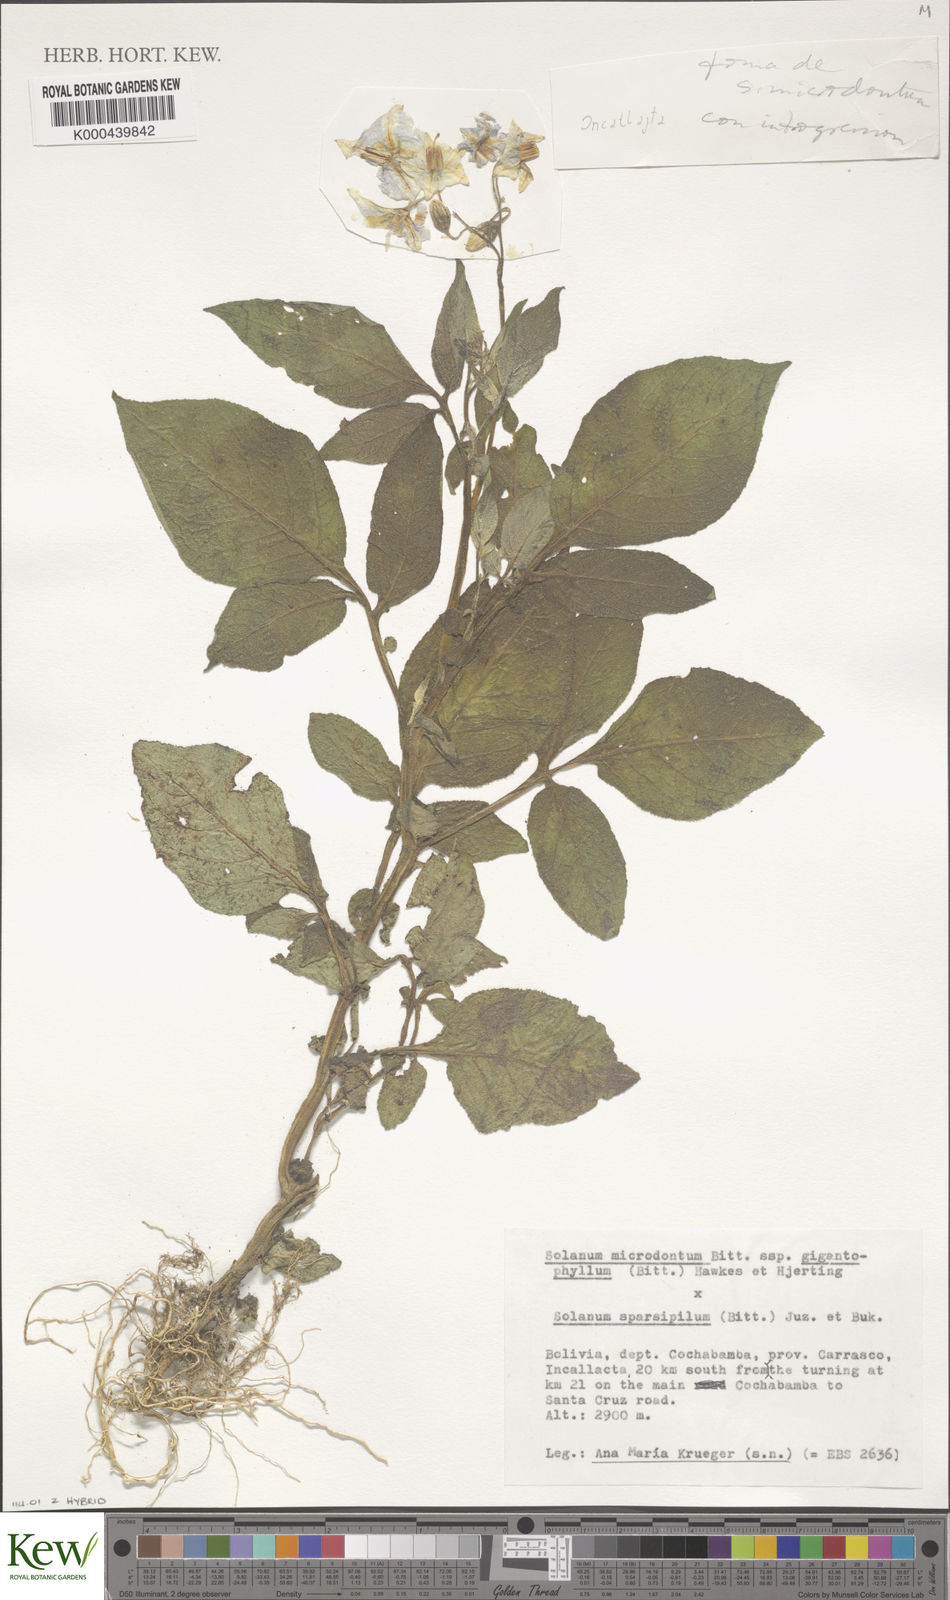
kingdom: Plantae
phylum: Tracheophyta
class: Magnoliopsida
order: Solanales
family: Solanaceae
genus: Solanum
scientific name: Solanum microdontum
